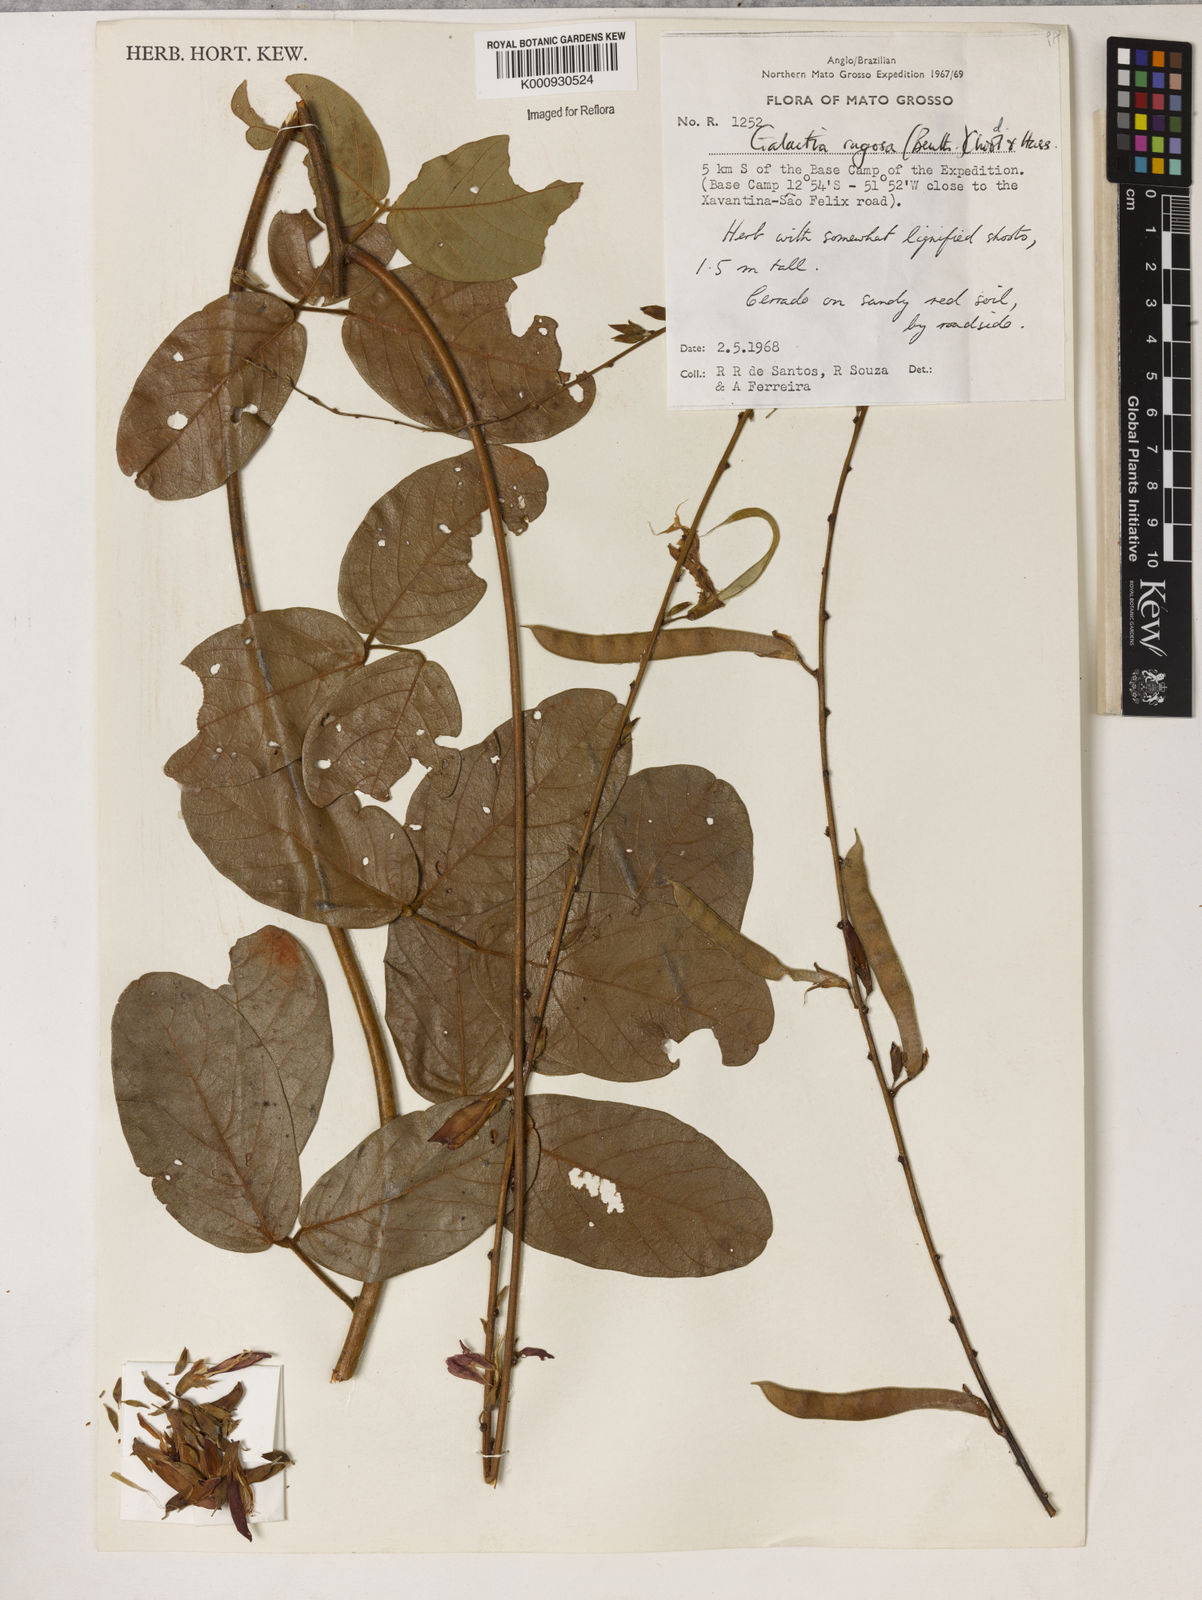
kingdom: Plantae
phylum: Tracheophyta
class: Magnoliopsida
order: Fabales
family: Fabaceae
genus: Galactia
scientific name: Galactia
